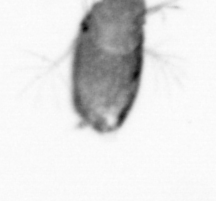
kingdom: Animalia
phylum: Arthropoda
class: Copepoda
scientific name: Copepoda
